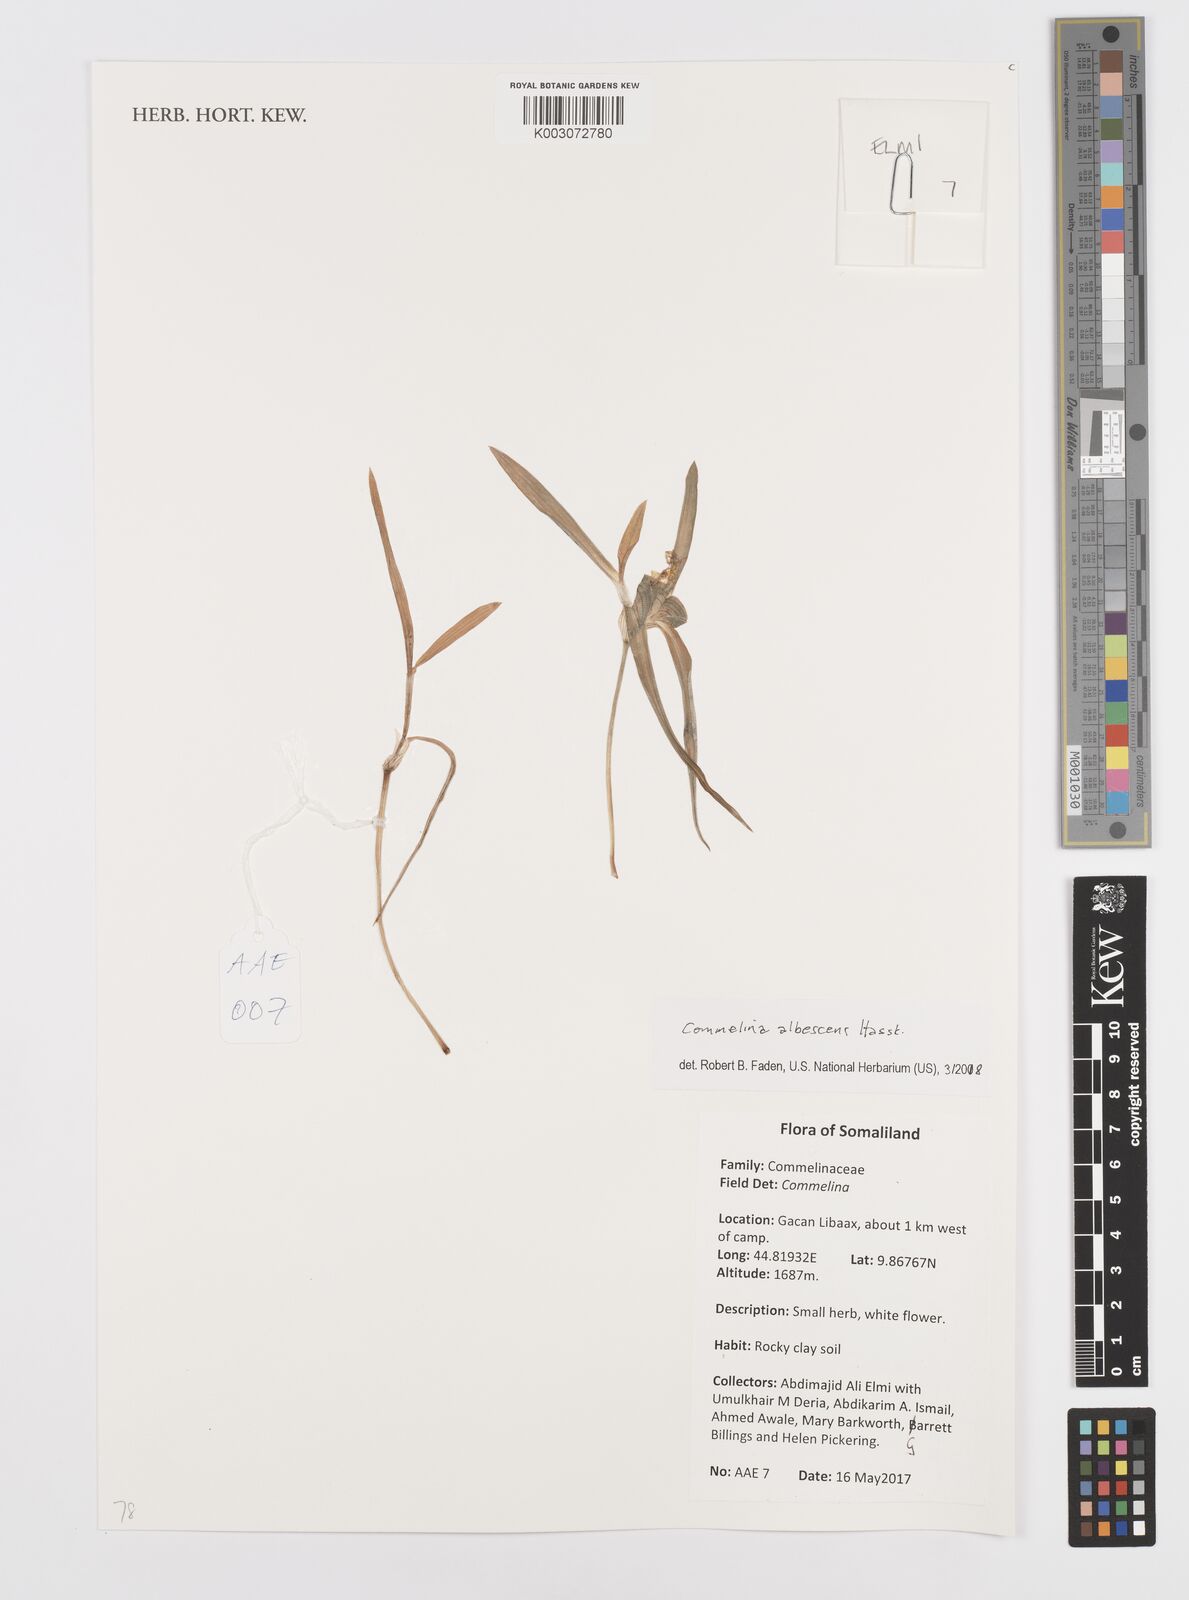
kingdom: Plantae
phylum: Tracheophyta
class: Liliopsida
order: Commelinales
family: Commelinaceae
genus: Commelina
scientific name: Commelina albescens
